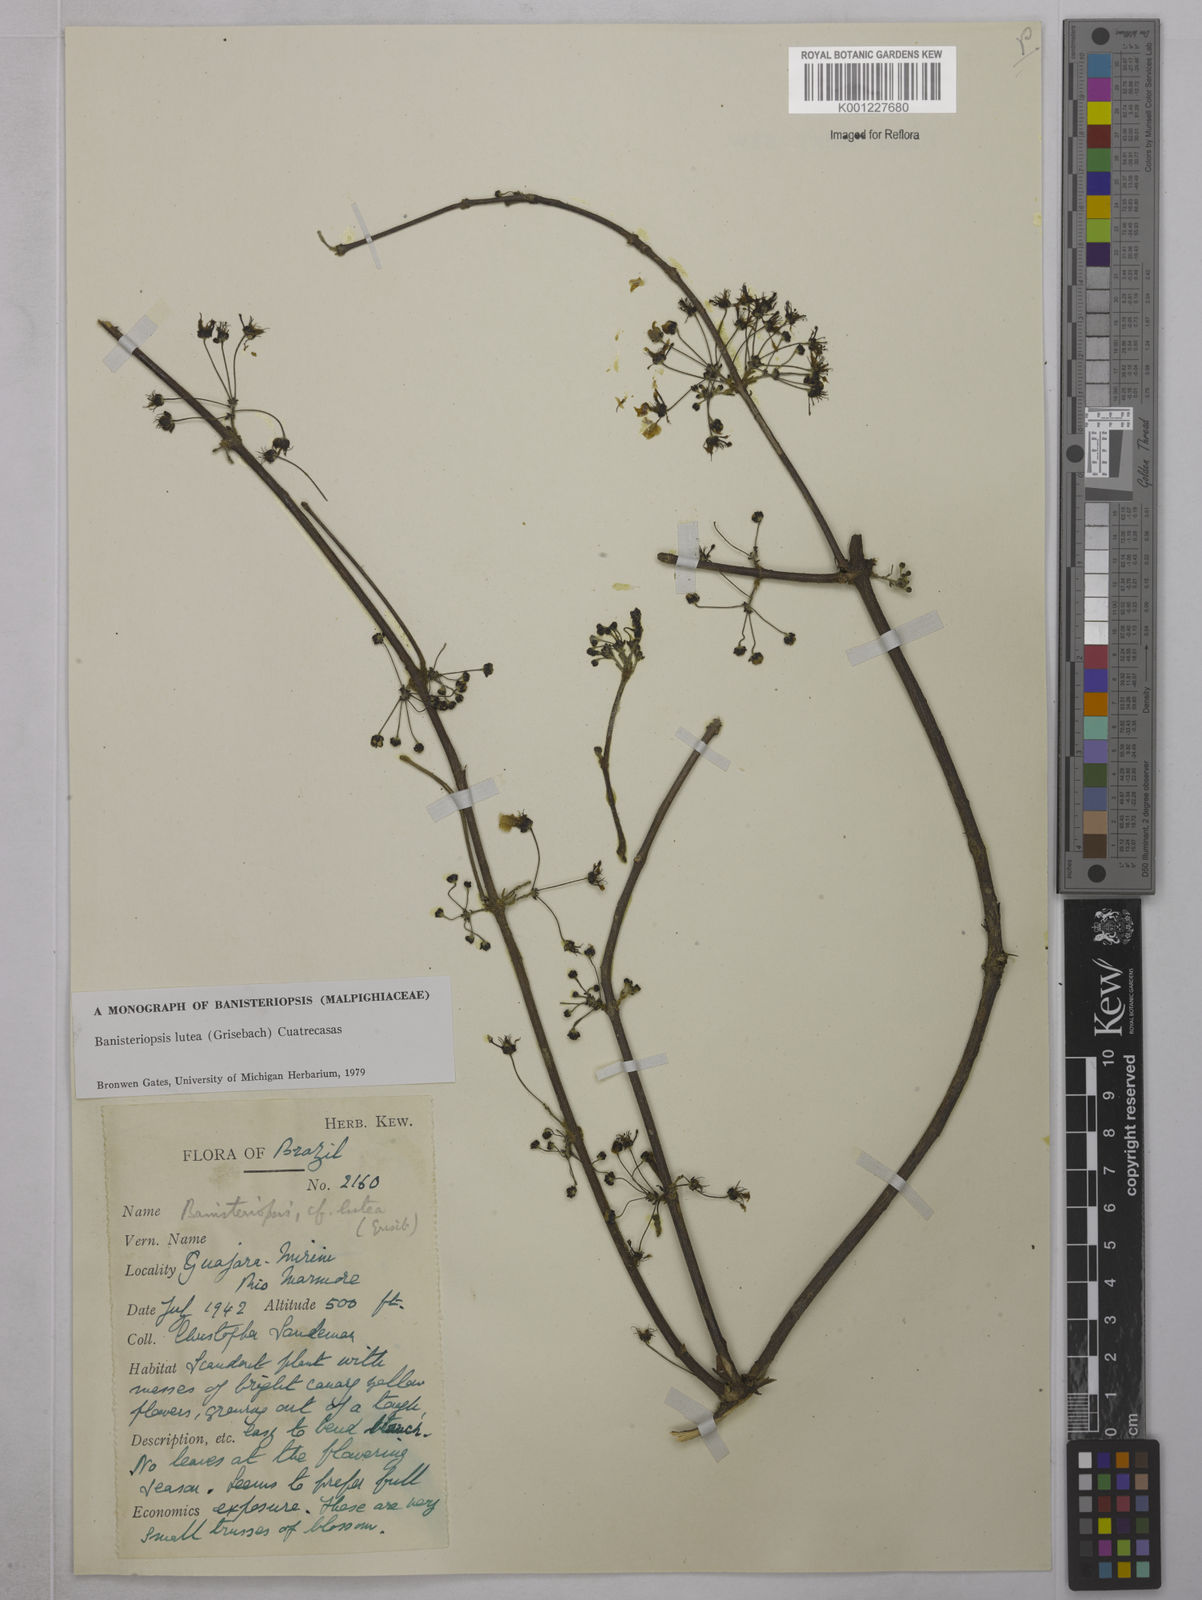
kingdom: Plantae
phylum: Tracheophyta
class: Magnoliopsida
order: Malpighiales
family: Malpighiaceae
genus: Diplopterys
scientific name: Diplopterys lutea
